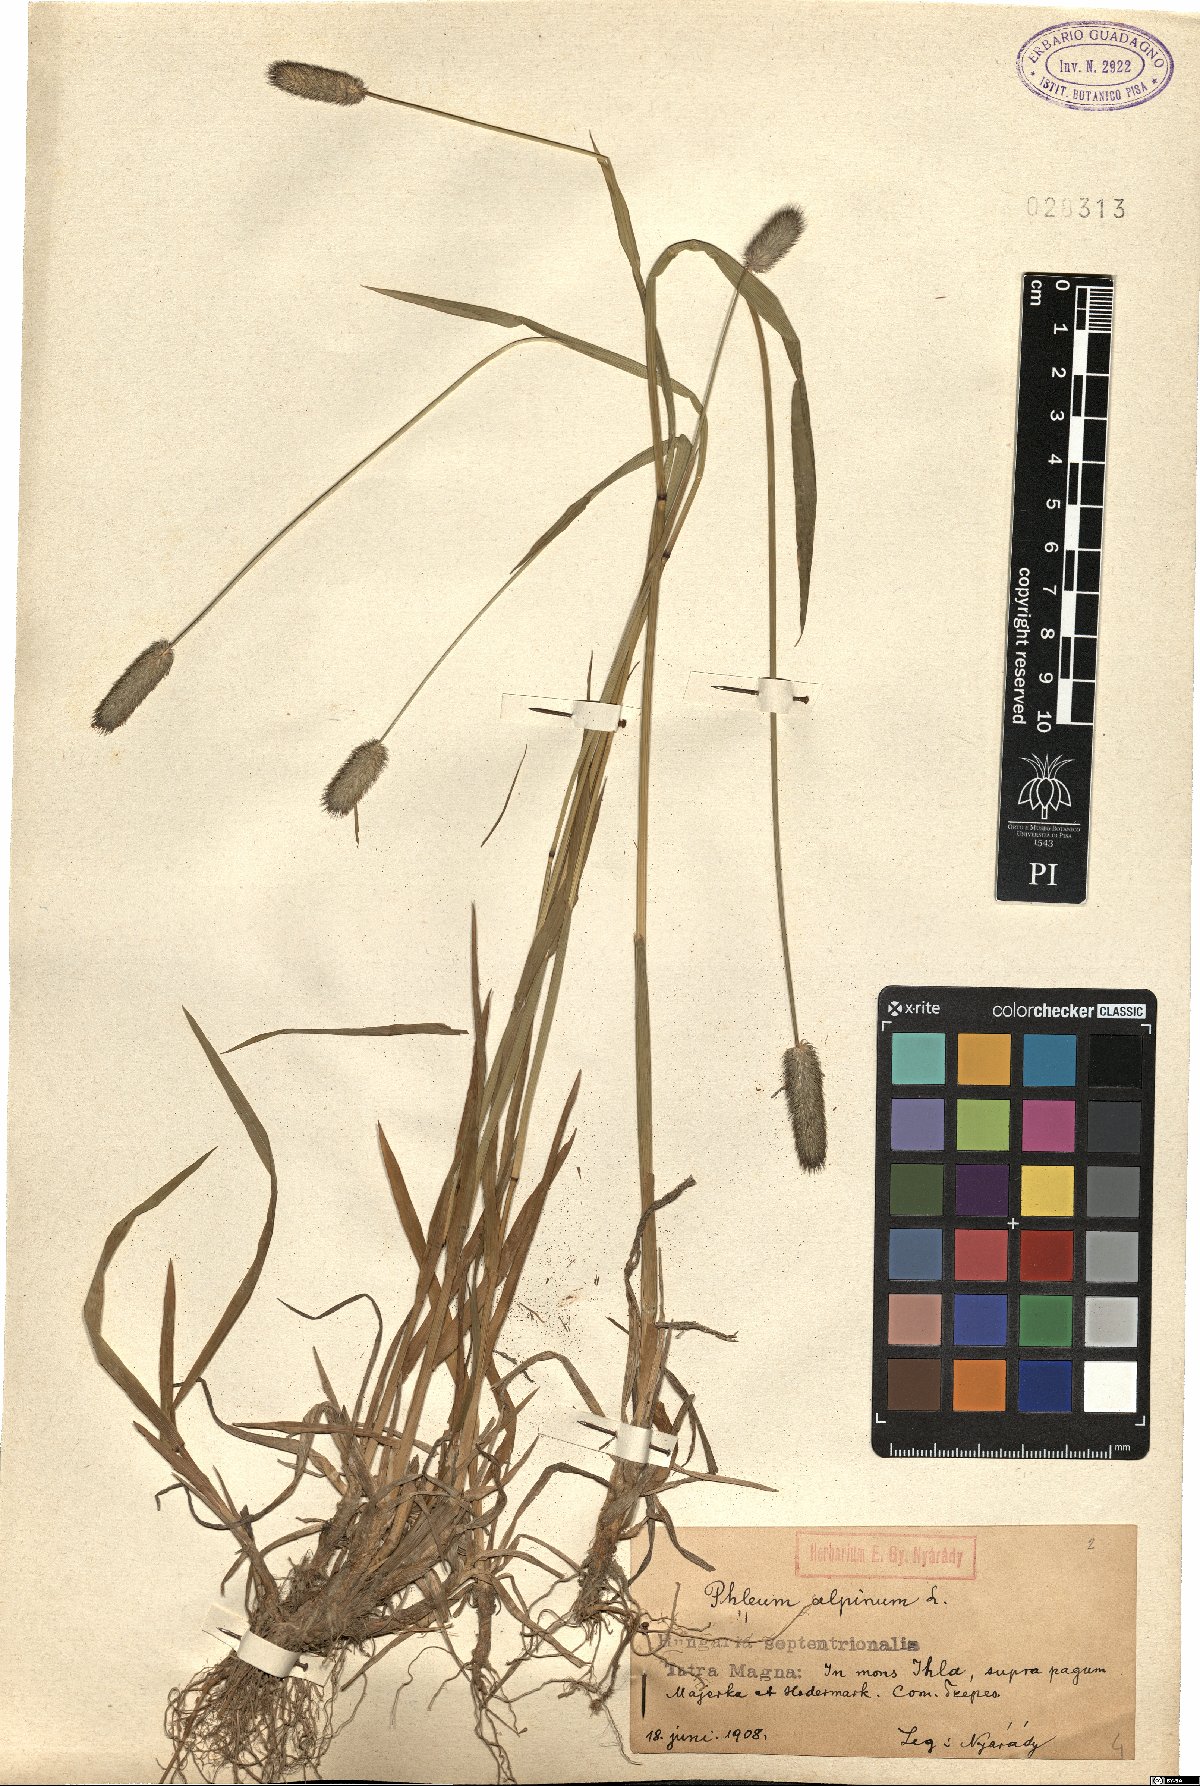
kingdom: Plantae
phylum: Tracheophyta
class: Liliopsida
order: Poales
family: Poaceae
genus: Phleum
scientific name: Phleum alpinum
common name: Alpine cat's-tail
